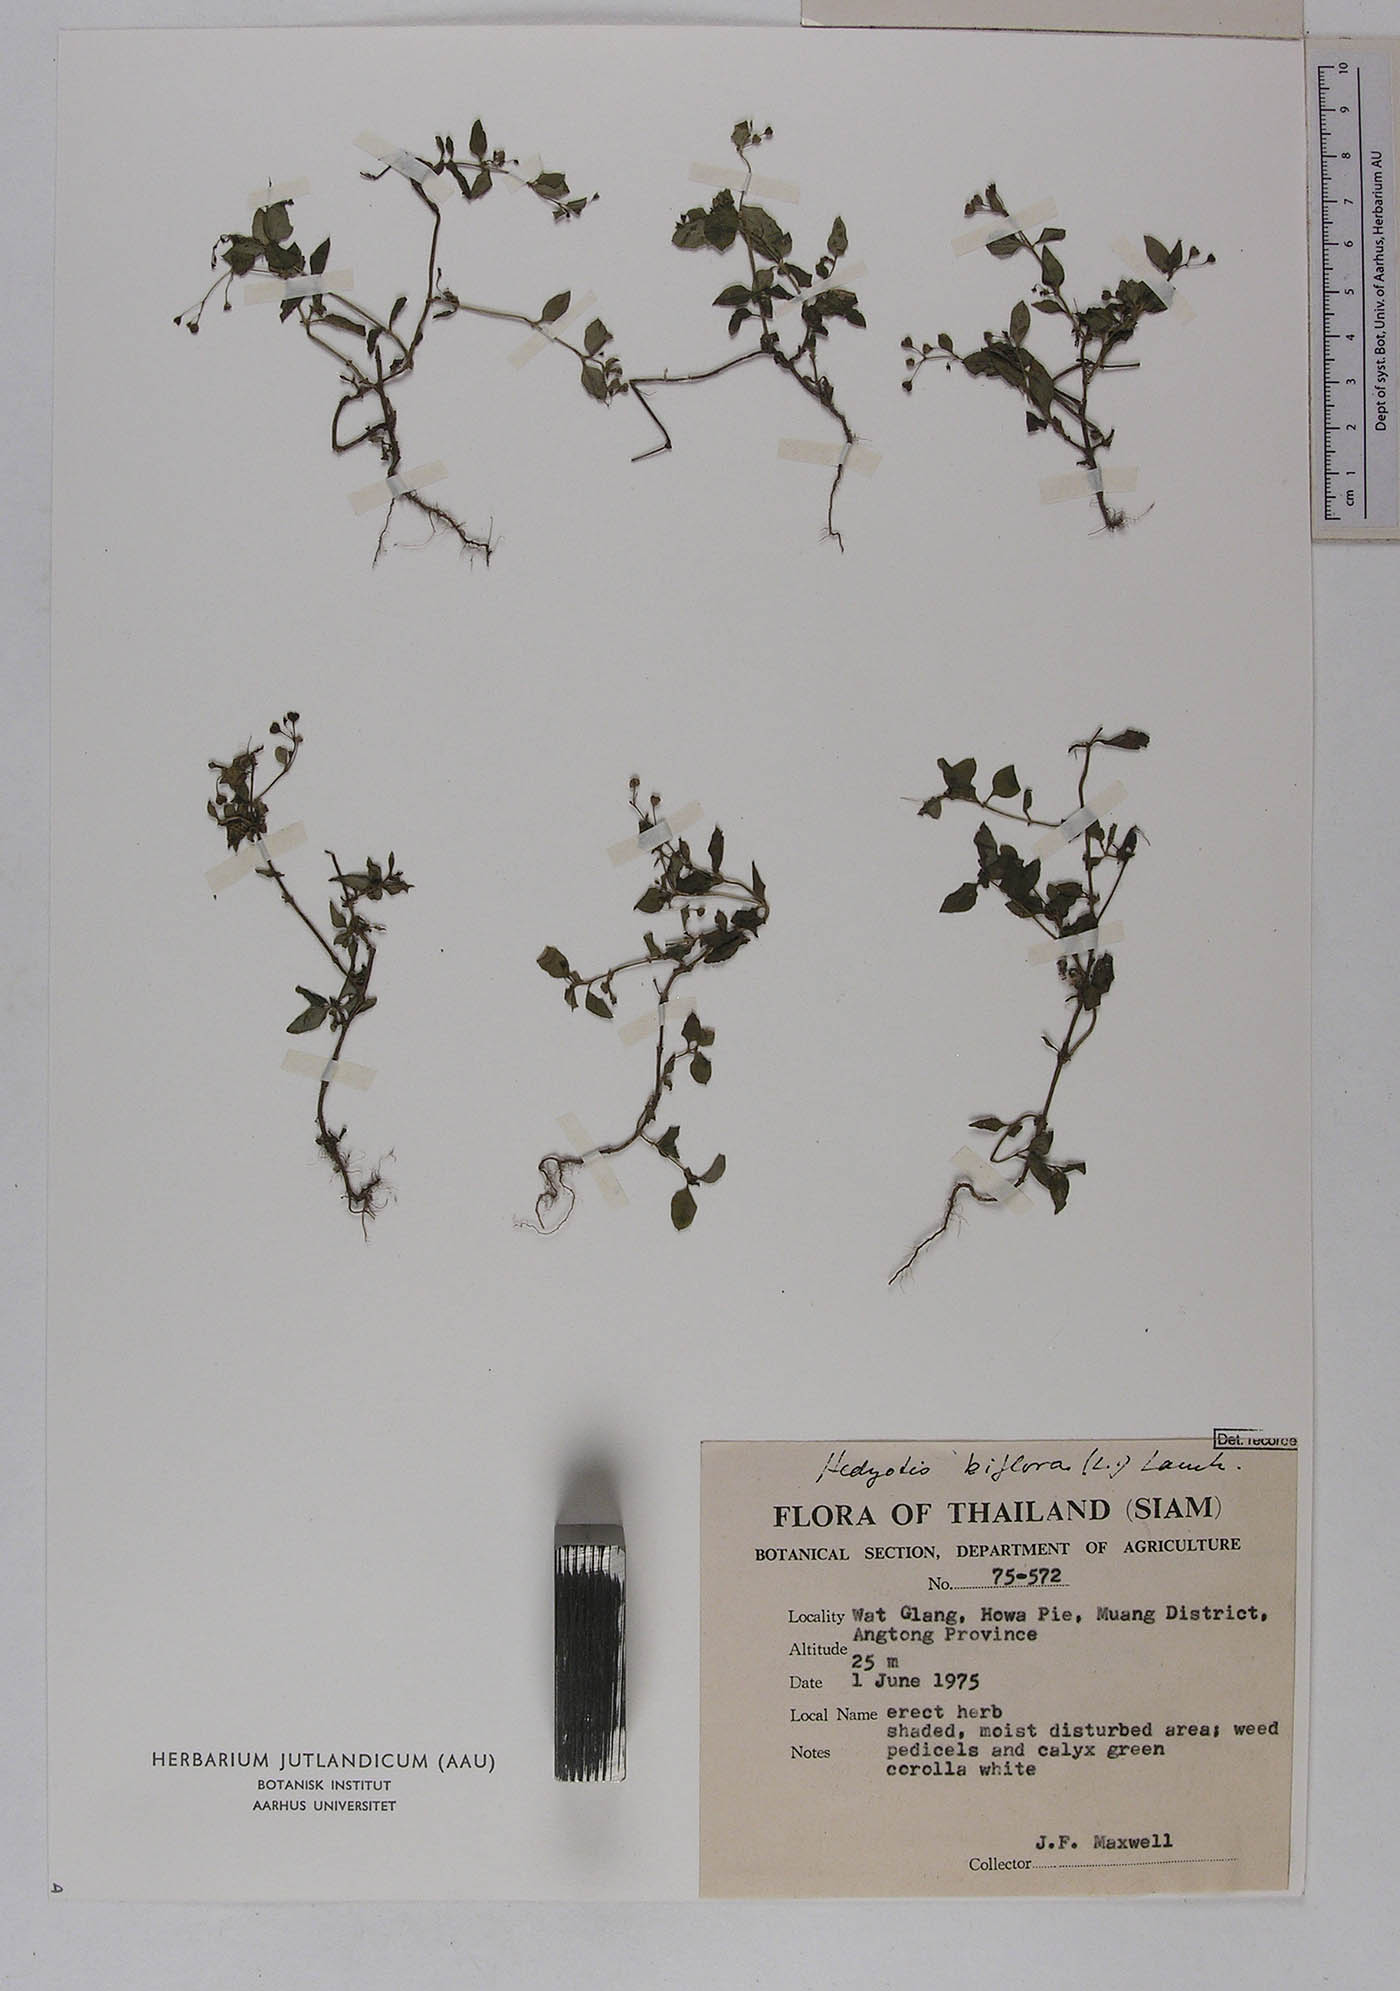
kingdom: Plantae
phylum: Tracheophyta
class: Magnoliopsida
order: Gentianales
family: Rubiaceae
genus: Leptopetalum
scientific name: Leptopetalum biflorum
